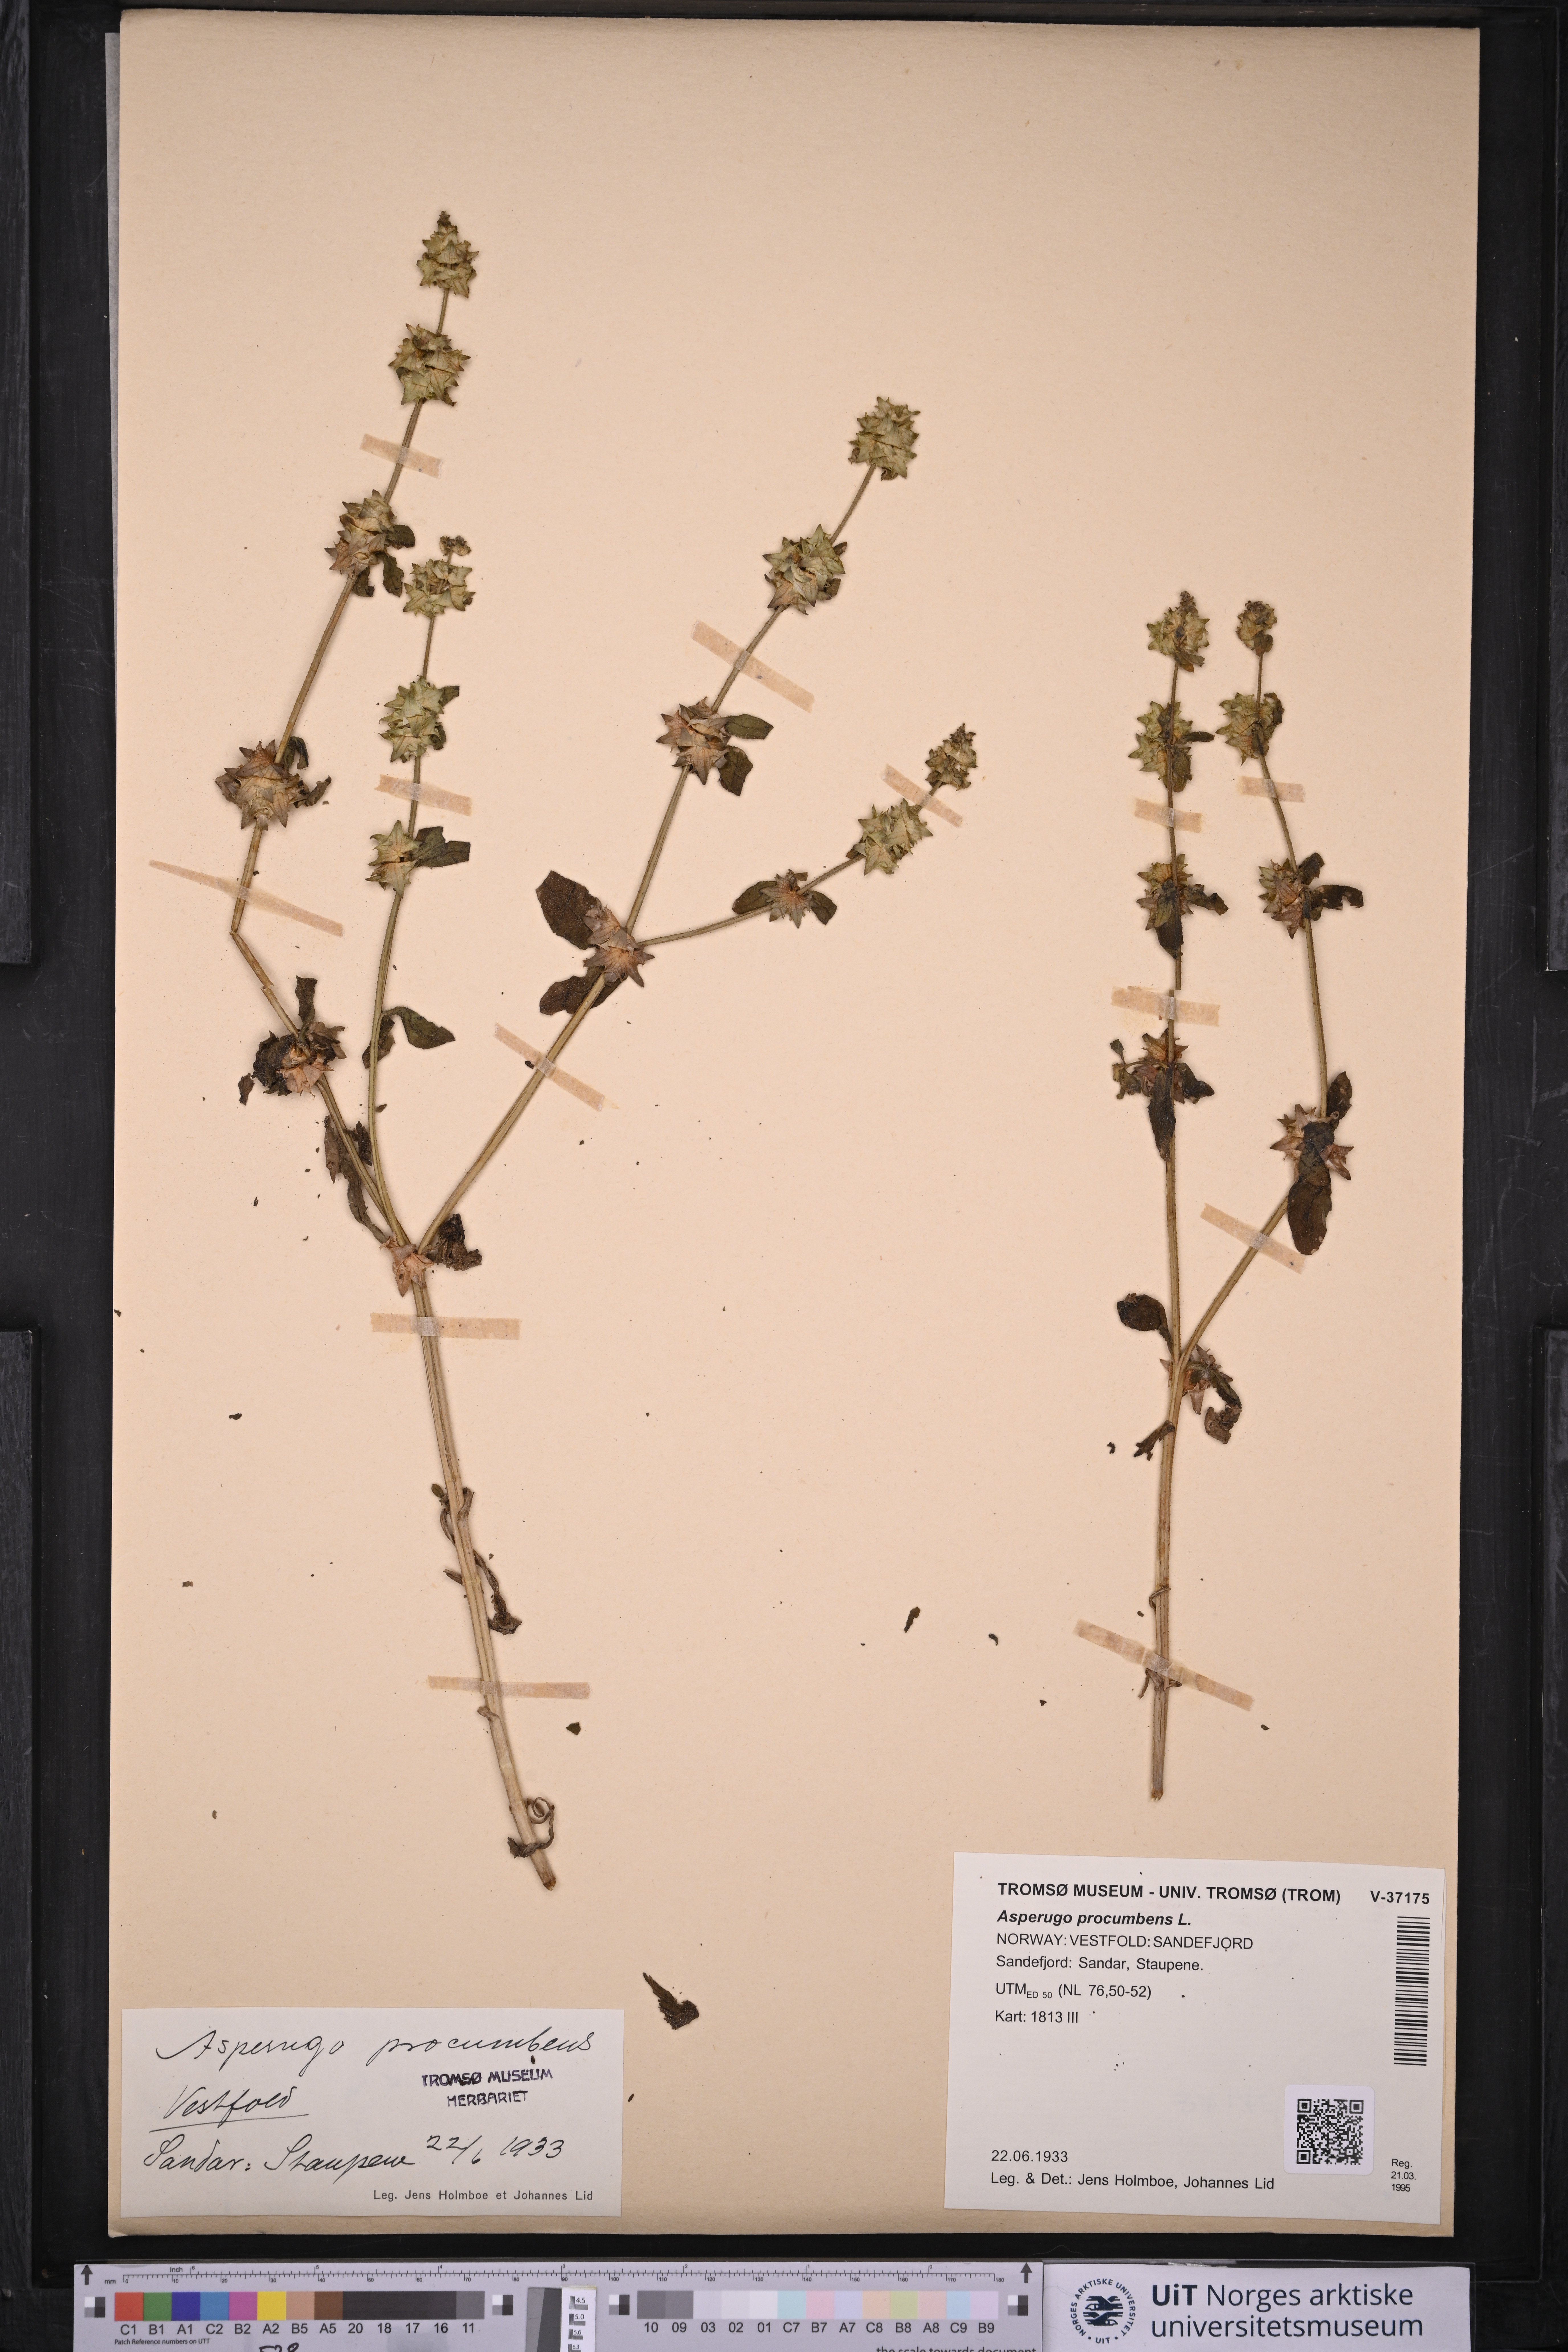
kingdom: Plantae
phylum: Tracheophyta
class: Magnoliopsida
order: Boraginales
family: Boraginaceae
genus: Asperugo
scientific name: Asperugo procumbens
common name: Madwort
